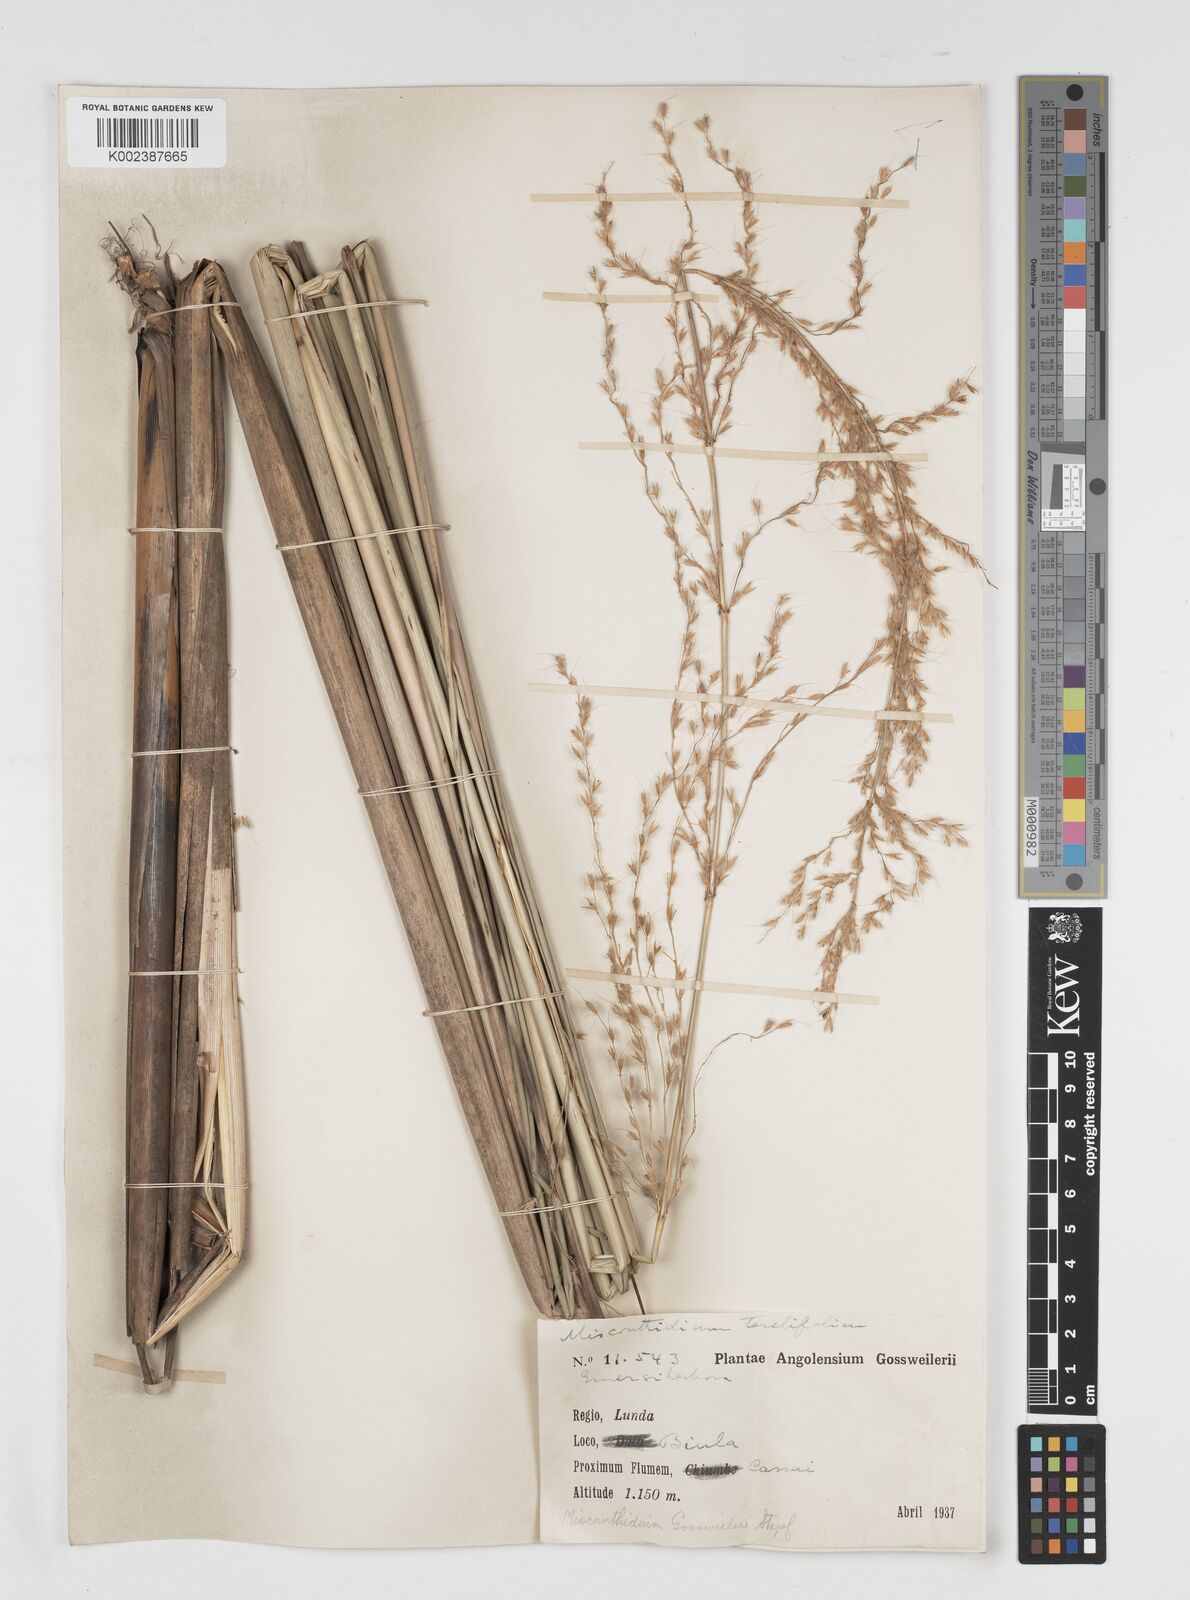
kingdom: Plantae
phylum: Tracheophyta
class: Liliopsida
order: Poales
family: Poaceae
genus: Miscanthidium
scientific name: Miscanthidium junceum
